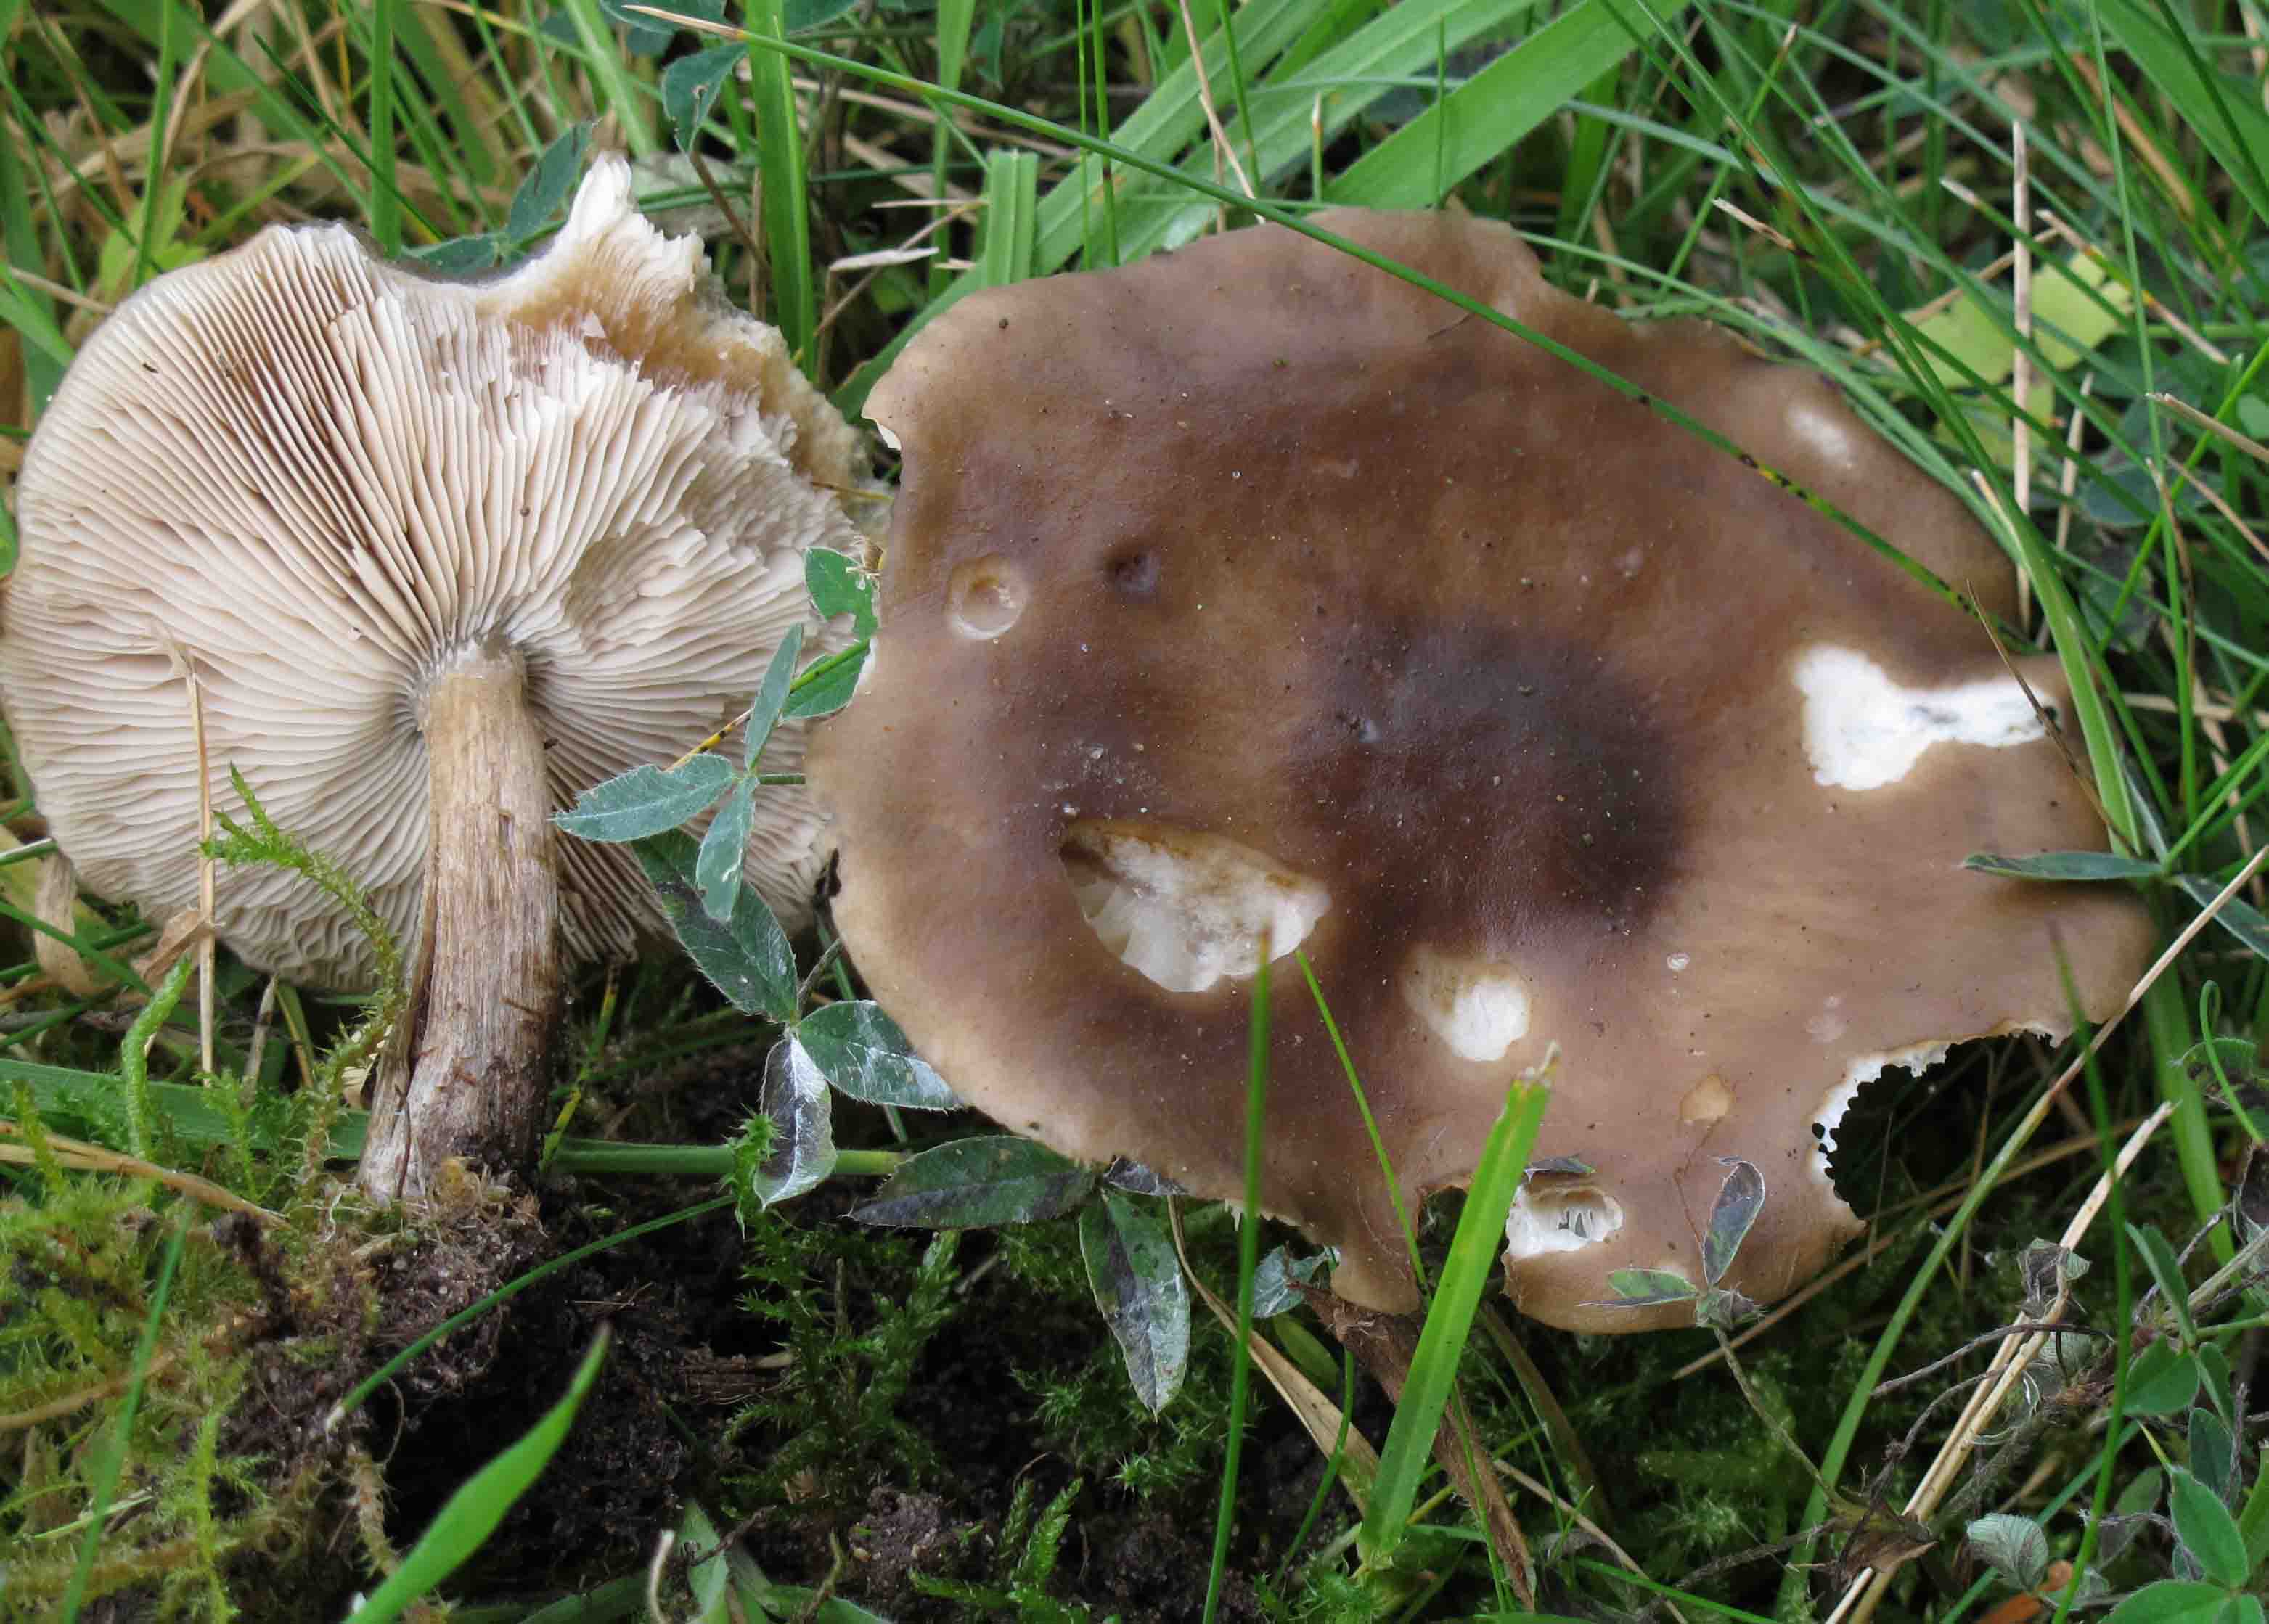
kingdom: Fungi
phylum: Basidiomycota
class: Agaricomycetes
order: Agaricales
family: Tricholomataceae
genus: Melanoleuca
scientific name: Melanoleuca polioleuca
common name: hvidbladet munkehat
